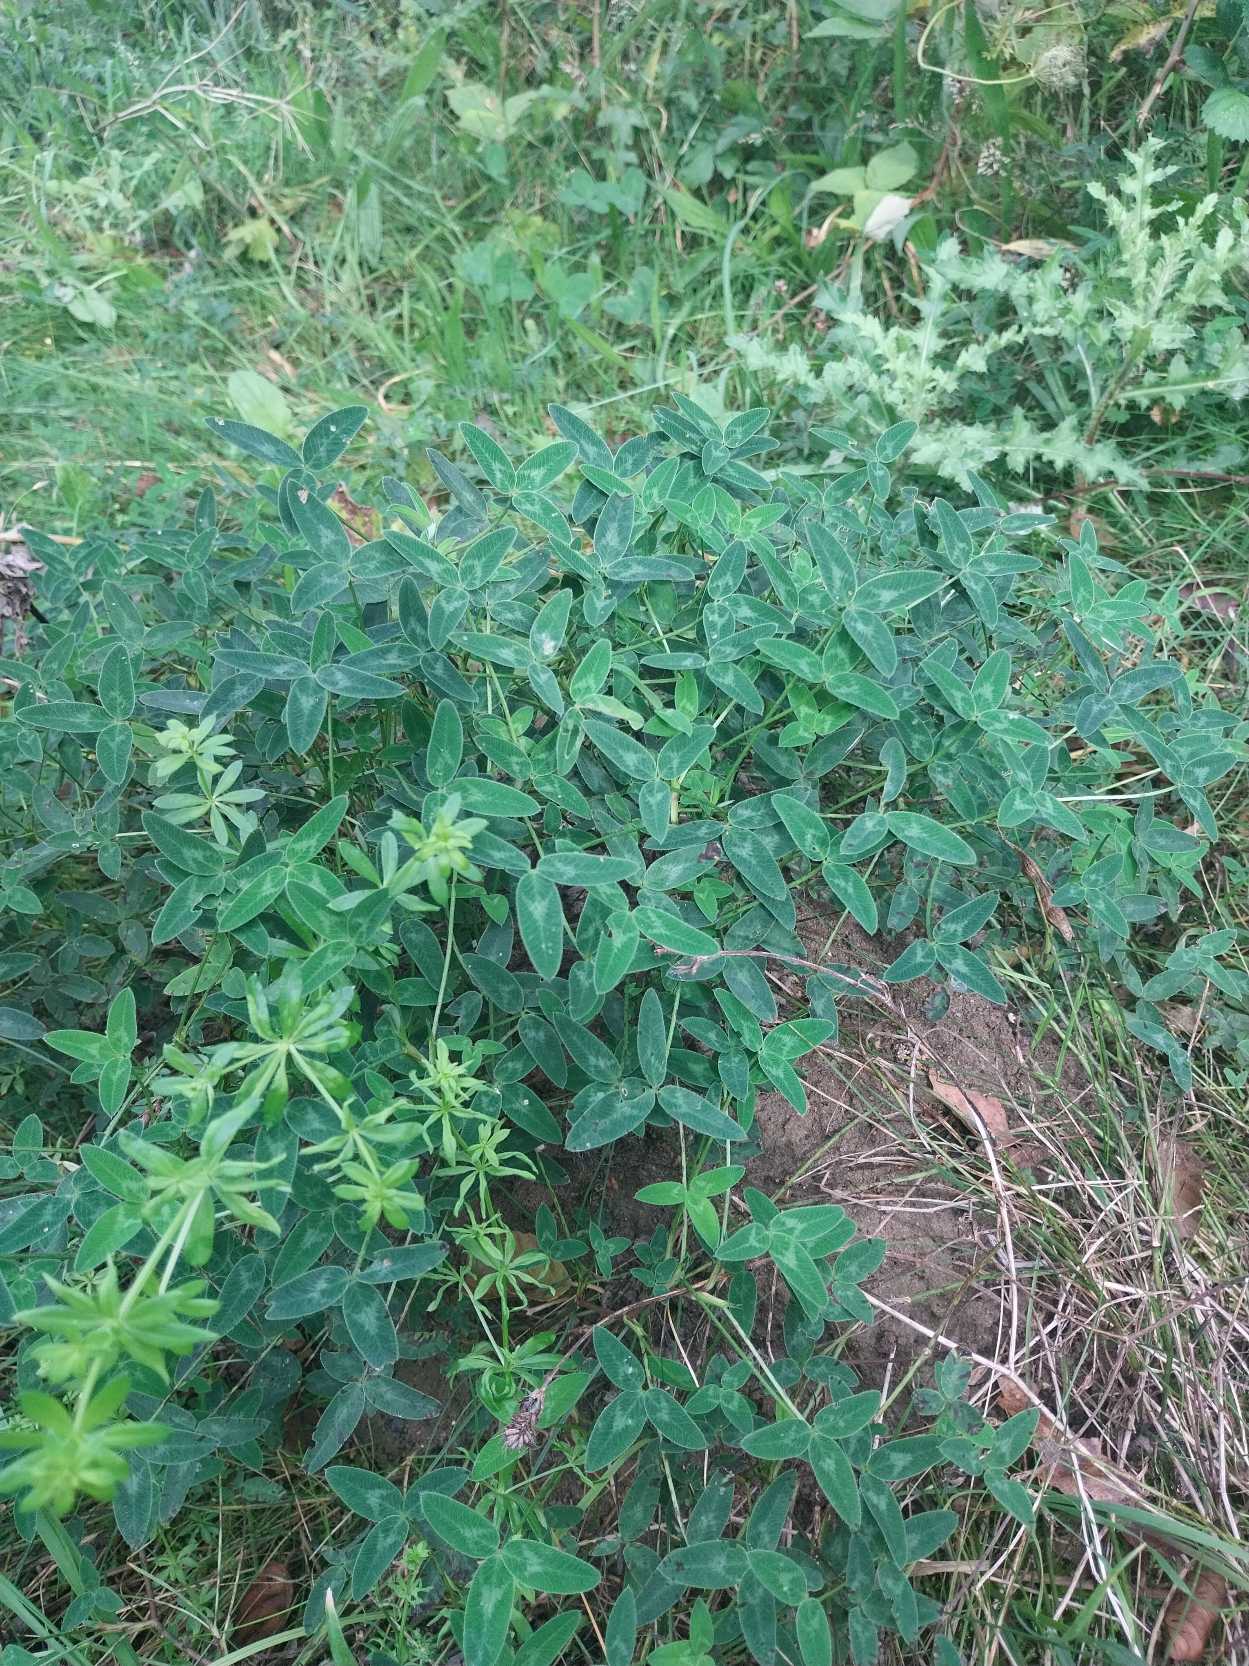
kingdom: Plantae
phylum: Tracheophyta
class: Magnoliopsida
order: Fabales
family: Fabaceae
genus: Trifolium
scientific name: Trifolium medium
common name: Bugtet kløver
